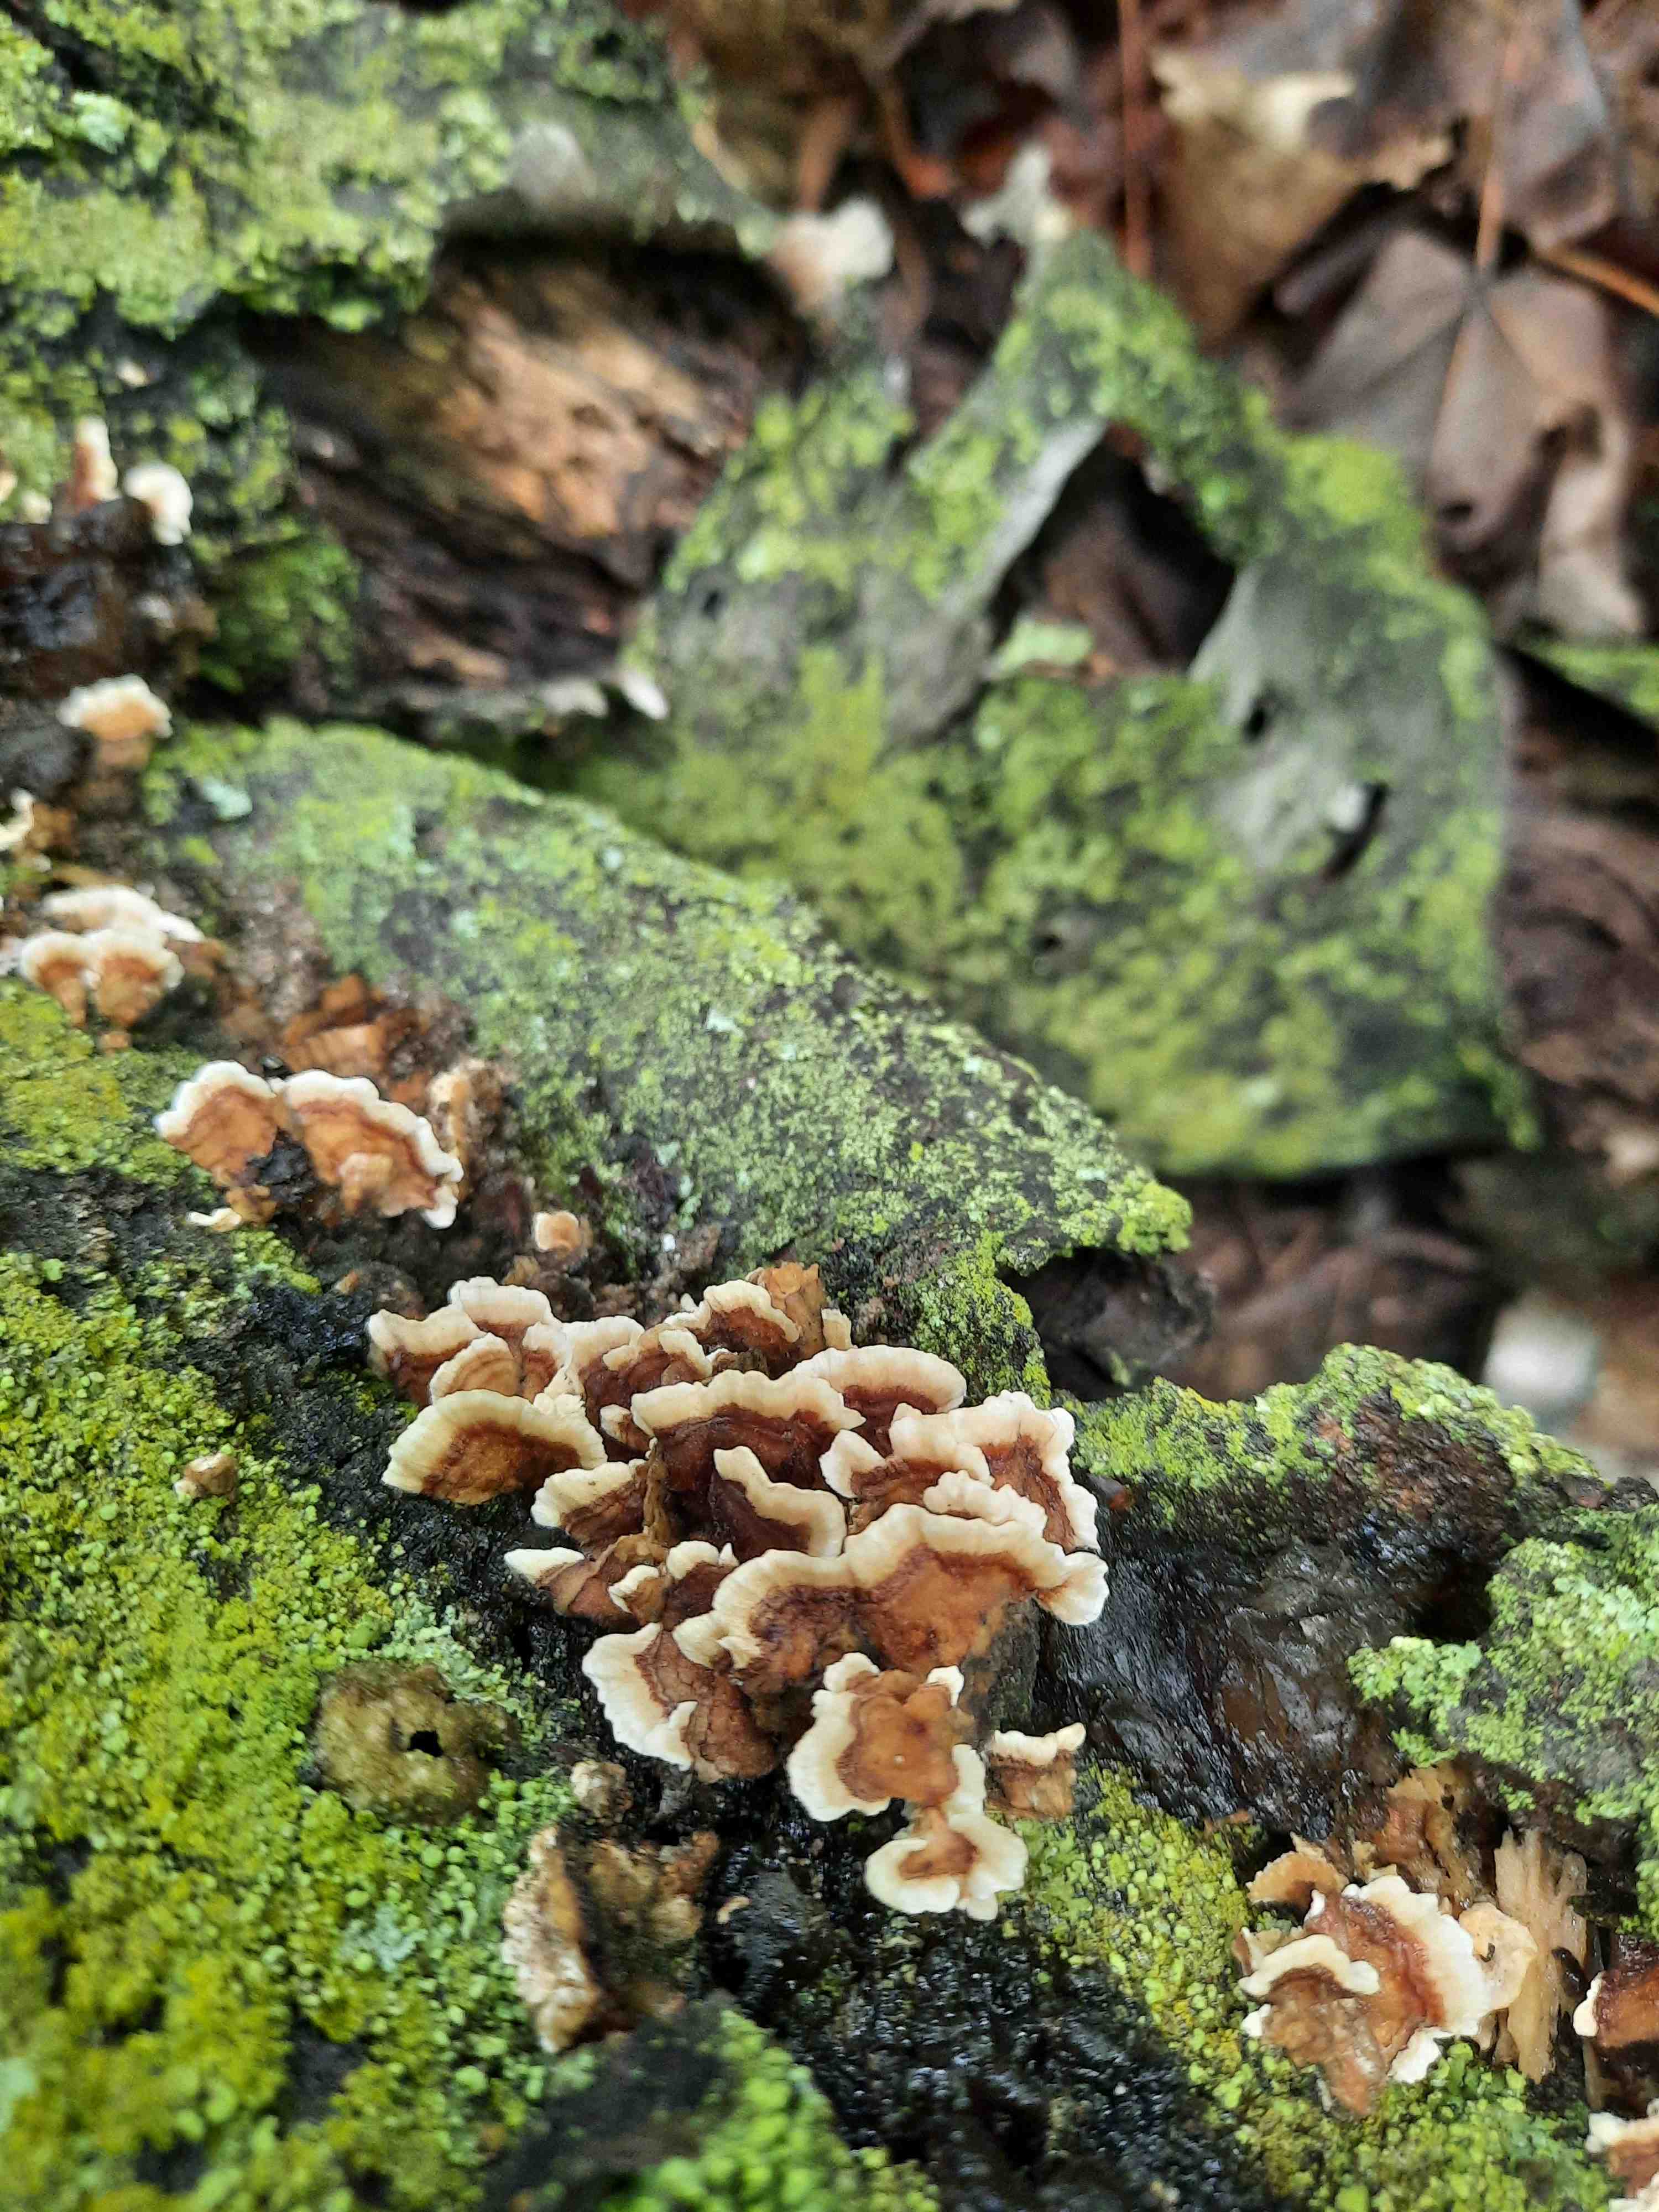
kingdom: Fungi
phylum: Basidiomycota
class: Agaricomycetes
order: Polyporales
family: Polyporaceae
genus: Trametes
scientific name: Trametes versicolor
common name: broget læderporesvamp
